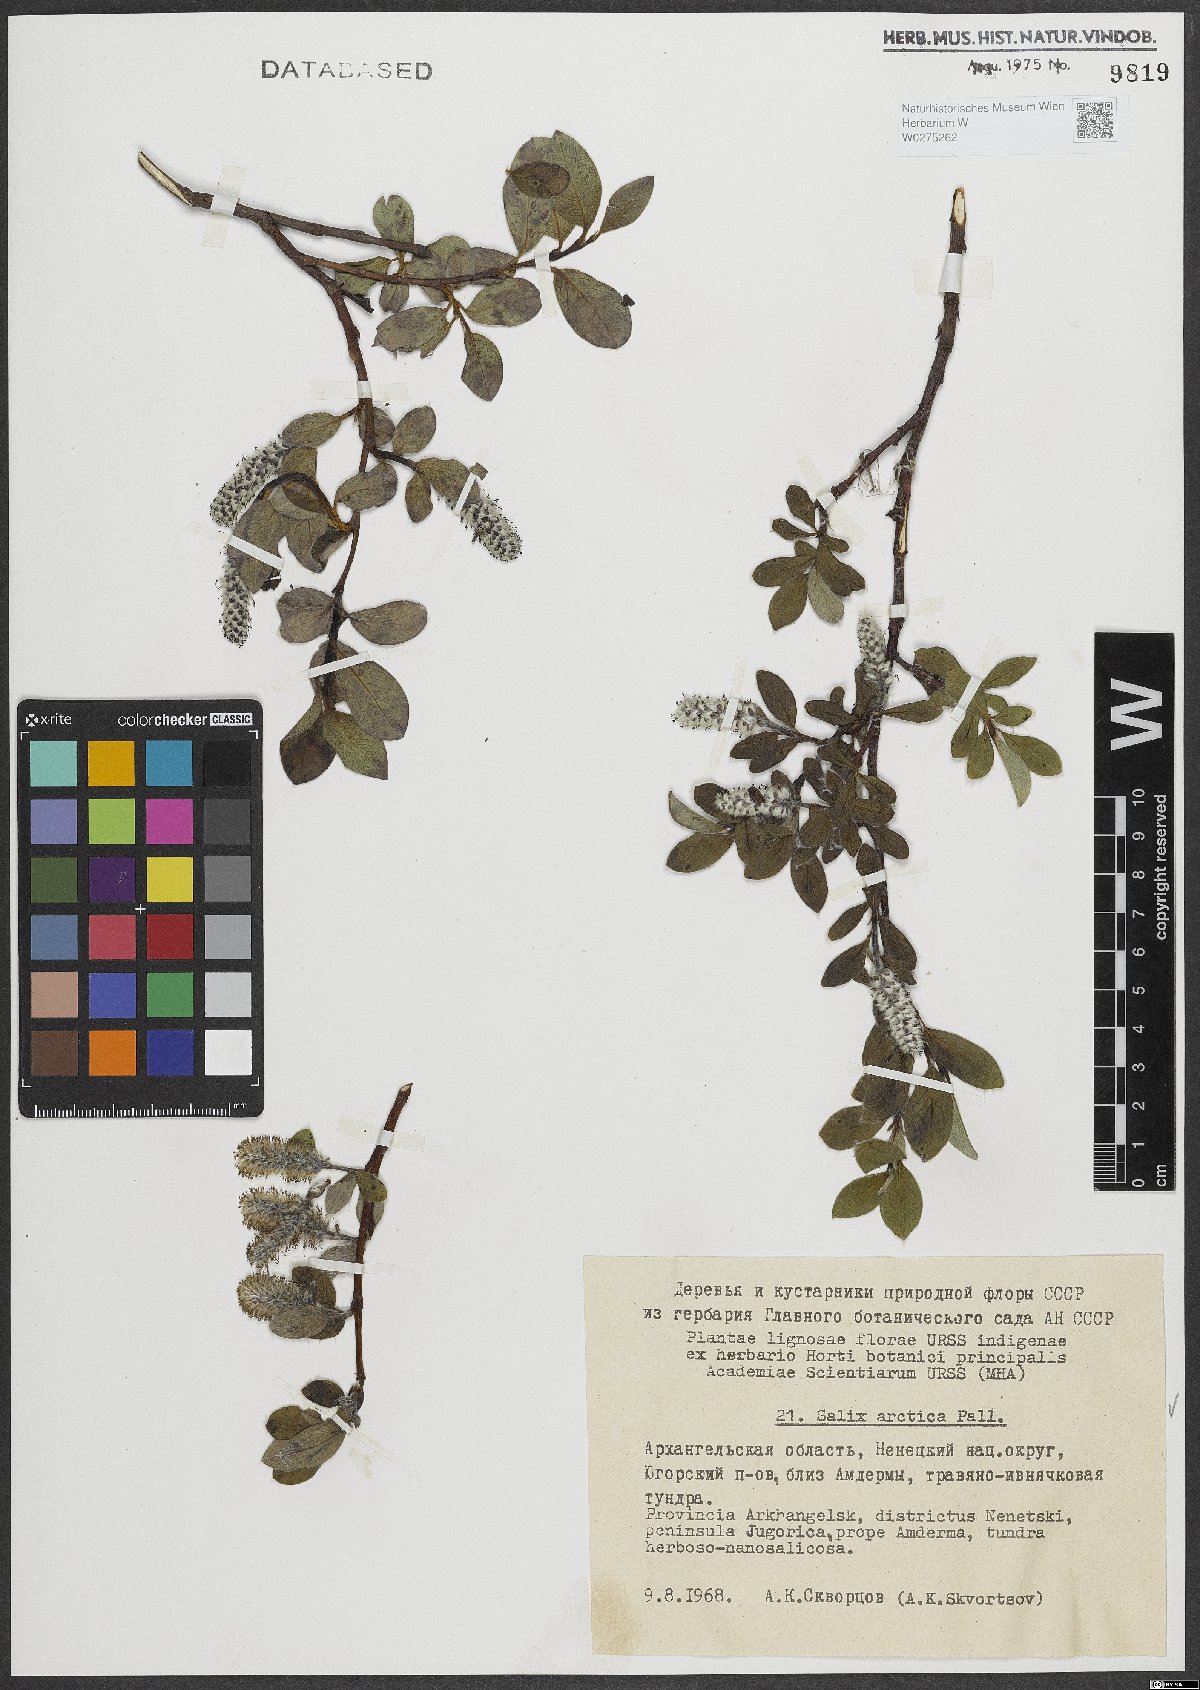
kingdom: Plantae
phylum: Tracheophyta
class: Magnoliopsida
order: Malpighiales
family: Salicaceae
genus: Salix
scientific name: Salix arctica
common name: Arctic willow
